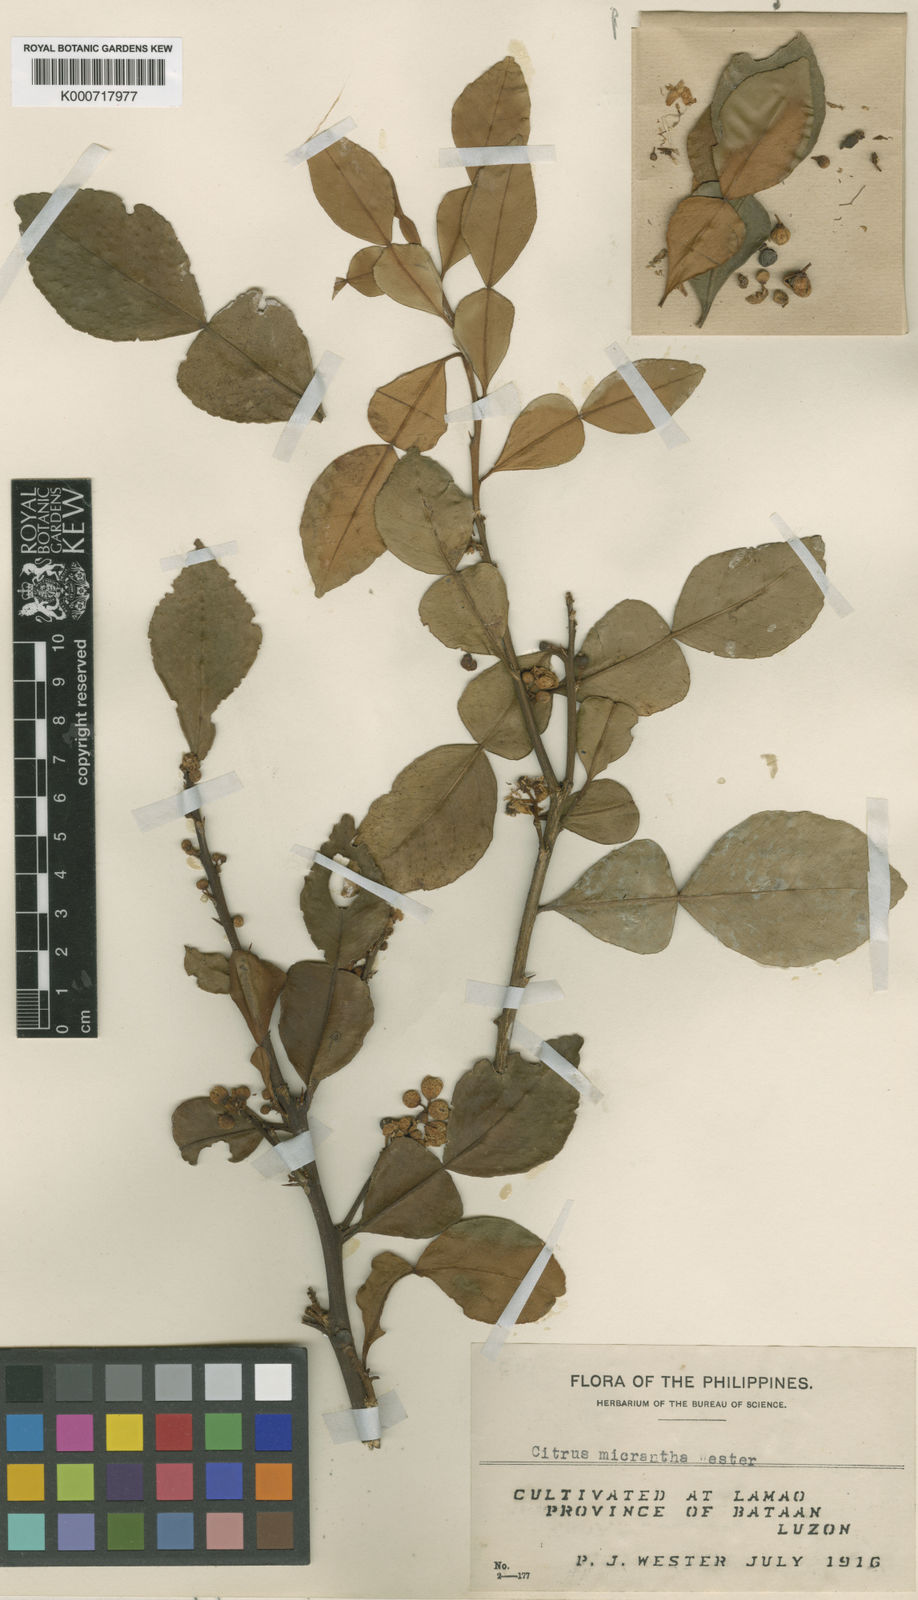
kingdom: Plantae
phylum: Tracheophyta
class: Magnoliopsida
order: Sapindales
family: Rutaceae
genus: Citrus
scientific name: Citrus hystrix
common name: Kaffir-lime
